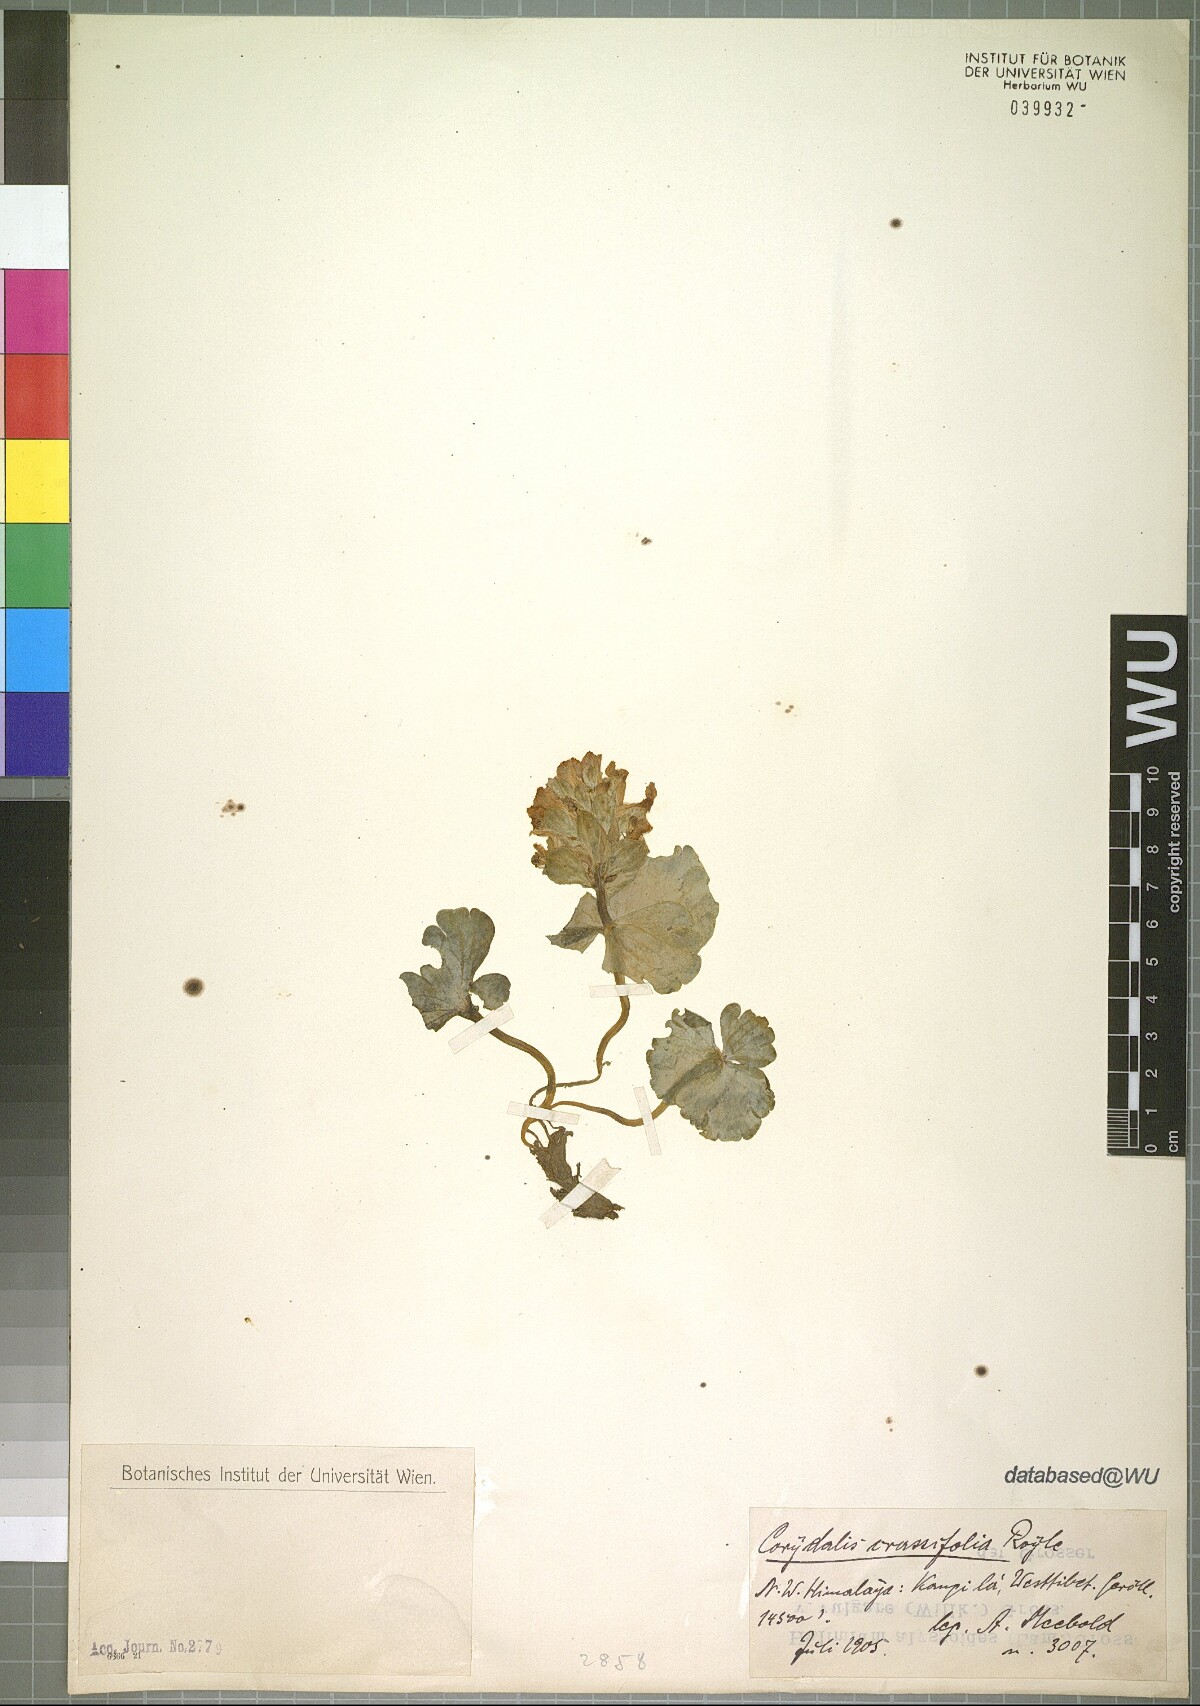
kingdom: Plantae
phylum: Tracheophyta
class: Magnoliopsida
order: Ranunculales
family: Papaveraceae
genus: Corydalis
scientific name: Corydalis crassifolia
